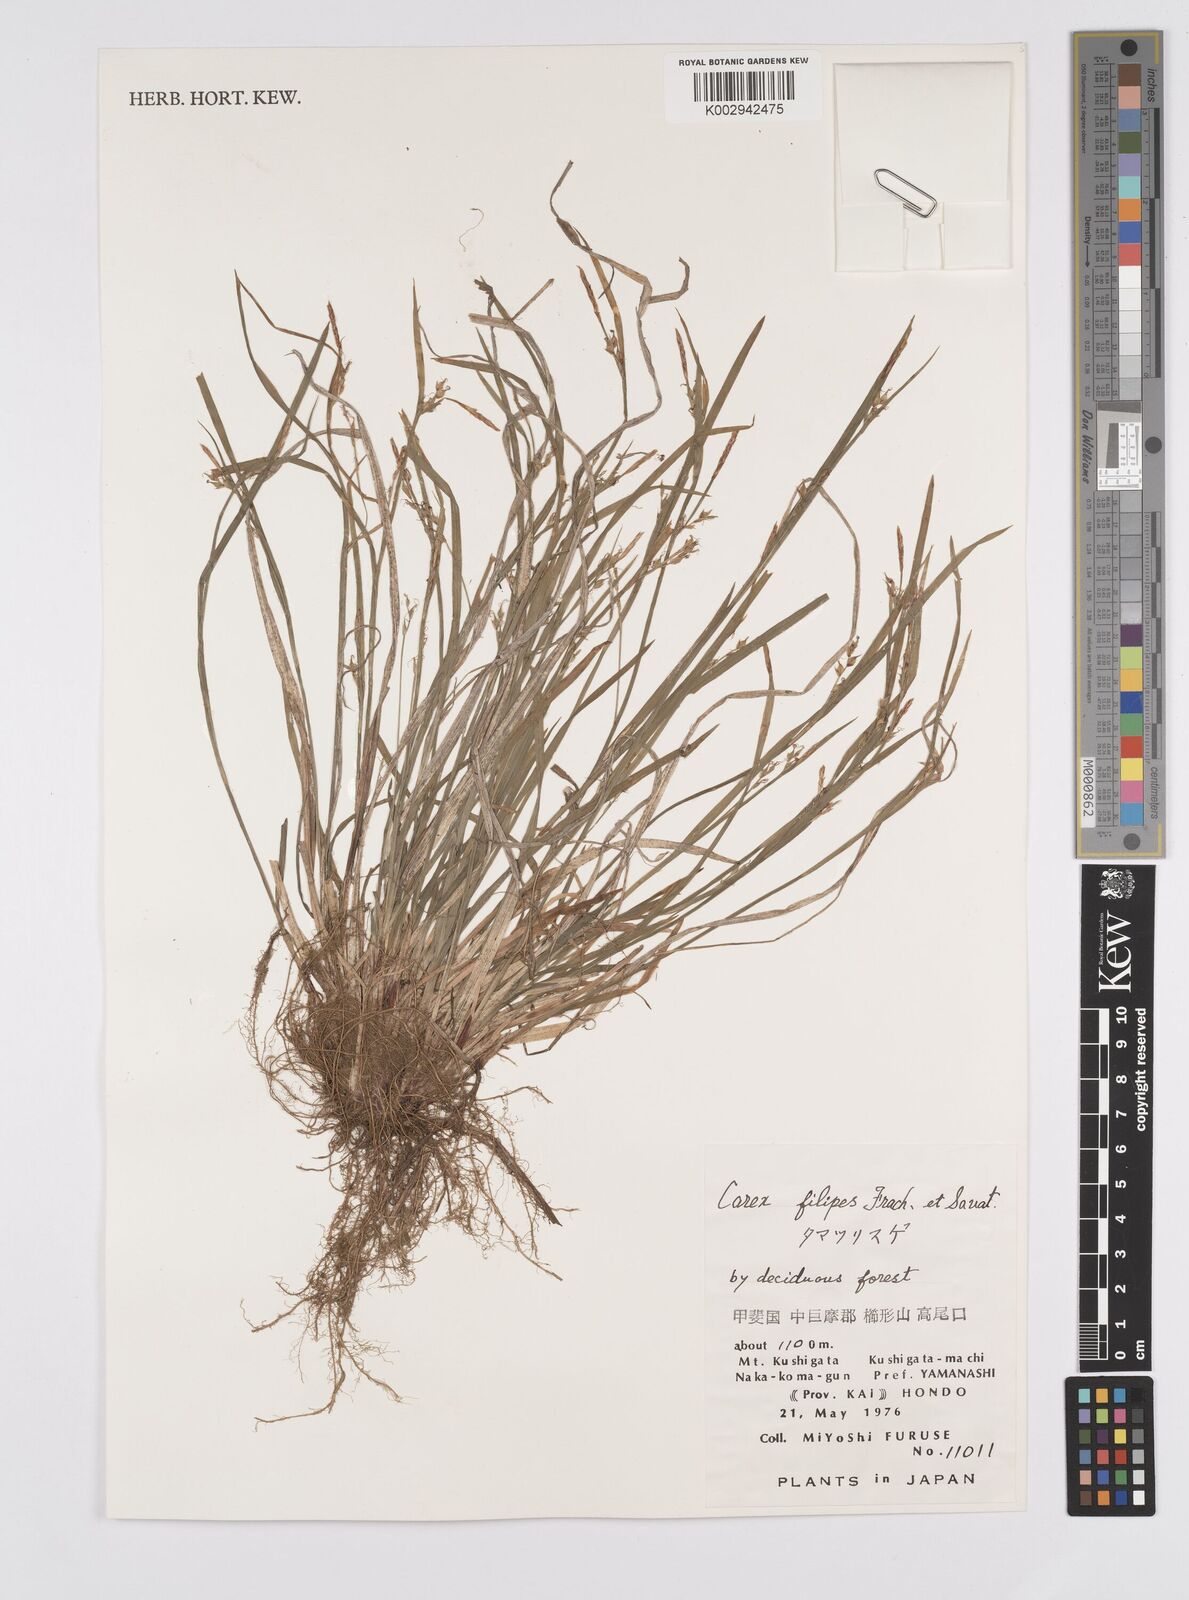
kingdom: Plantae
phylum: Tracheophyta
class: Liliopsida
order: Poales
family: Cyperaceae
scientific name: Cyperaceae
